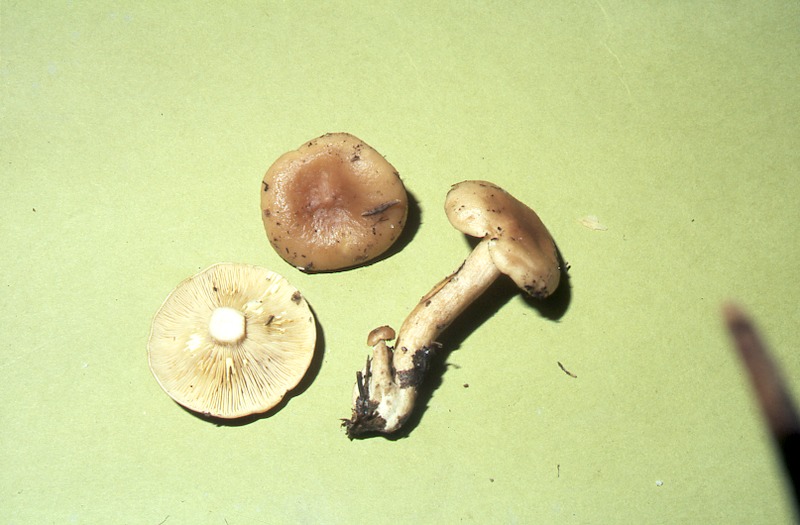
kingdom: Fungi
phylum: Basidiomycota
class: Agaricomycetes
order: Russulales
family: Russulaceae
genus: Lactarius
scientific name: Lactarius decipiens
